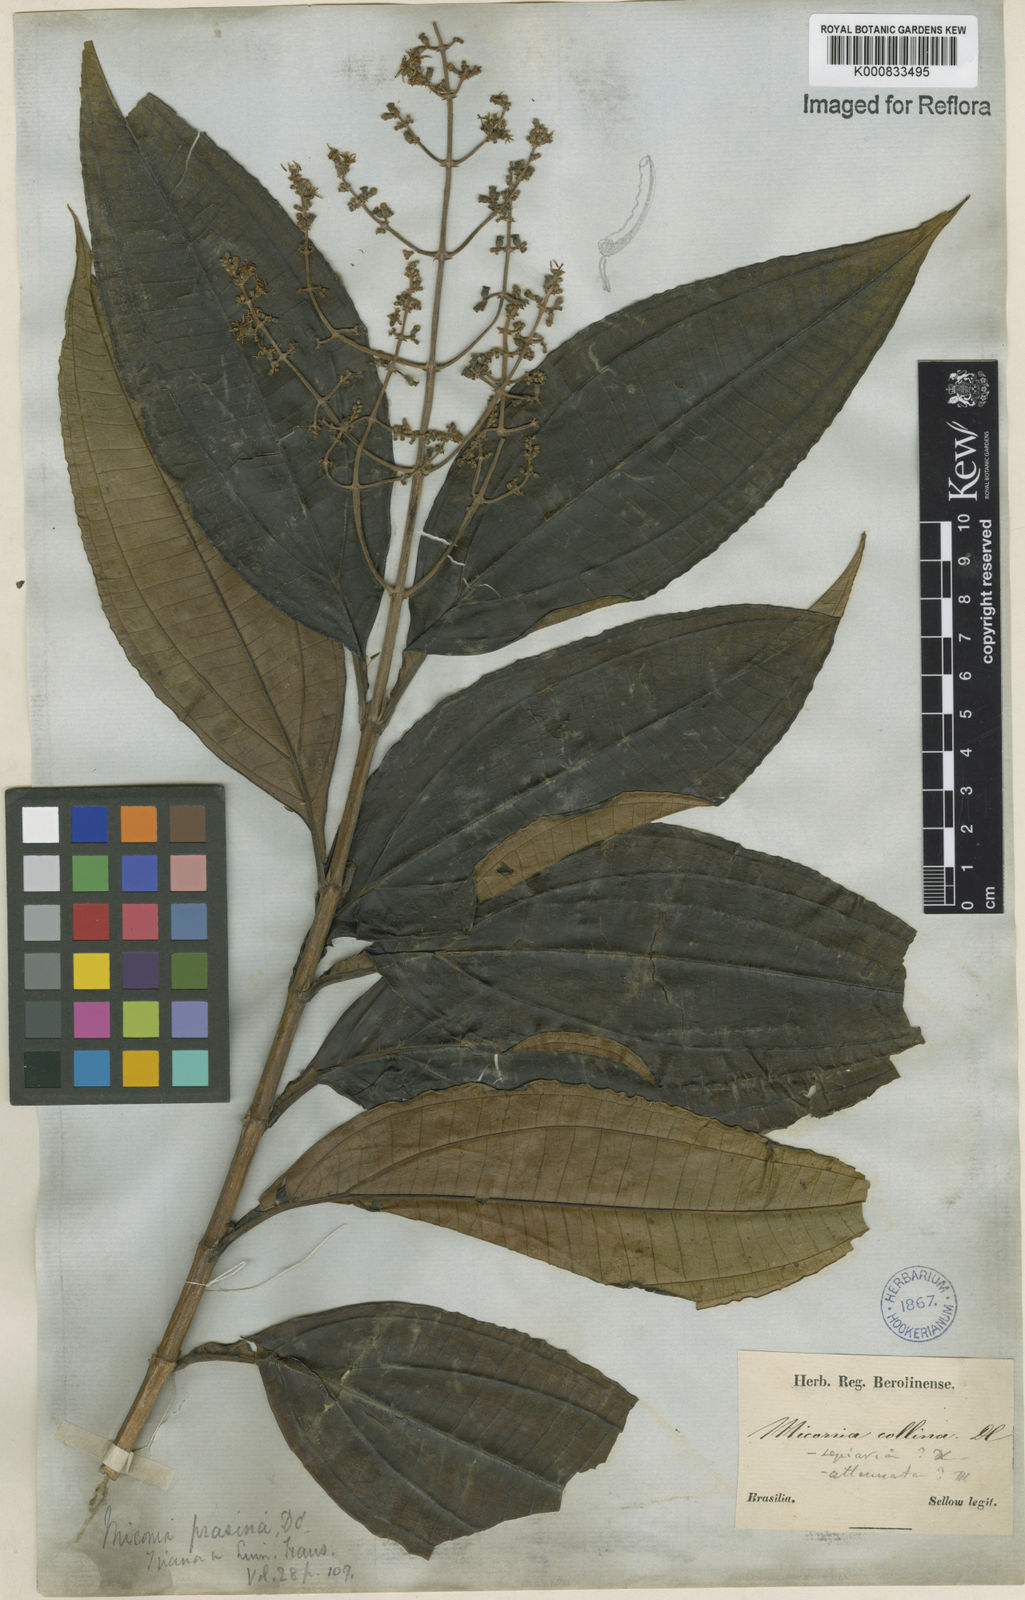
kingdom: Plantae
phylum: Tracheophyta
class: Magnoliopsida
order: Myrtales
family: Melastomataceae
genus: Miconia
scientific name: Miconia prasina
